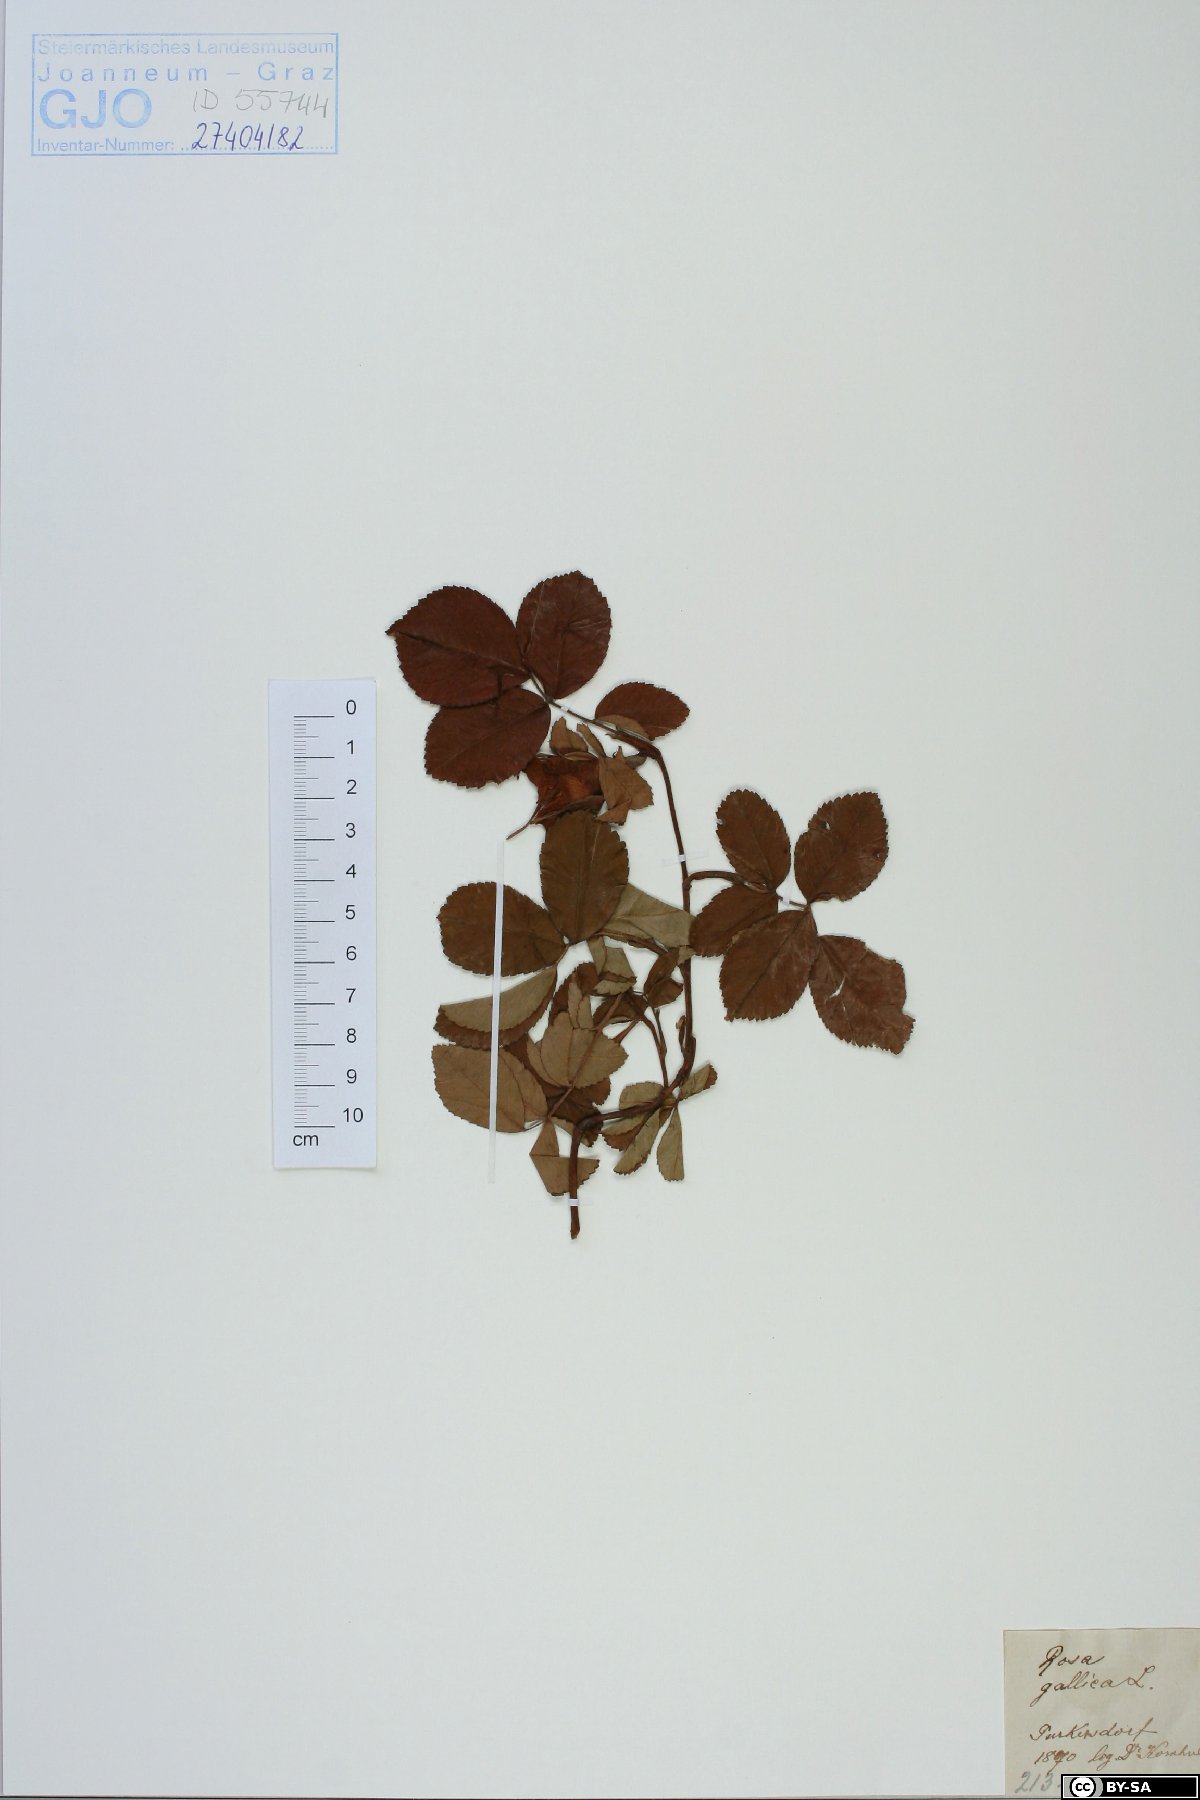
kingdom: Plantae
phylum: Tracheophyta
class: Magnoliopsida
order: Rosales
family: Rosaceae
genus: Rosa
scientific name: Rosa gallica
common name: French rose
